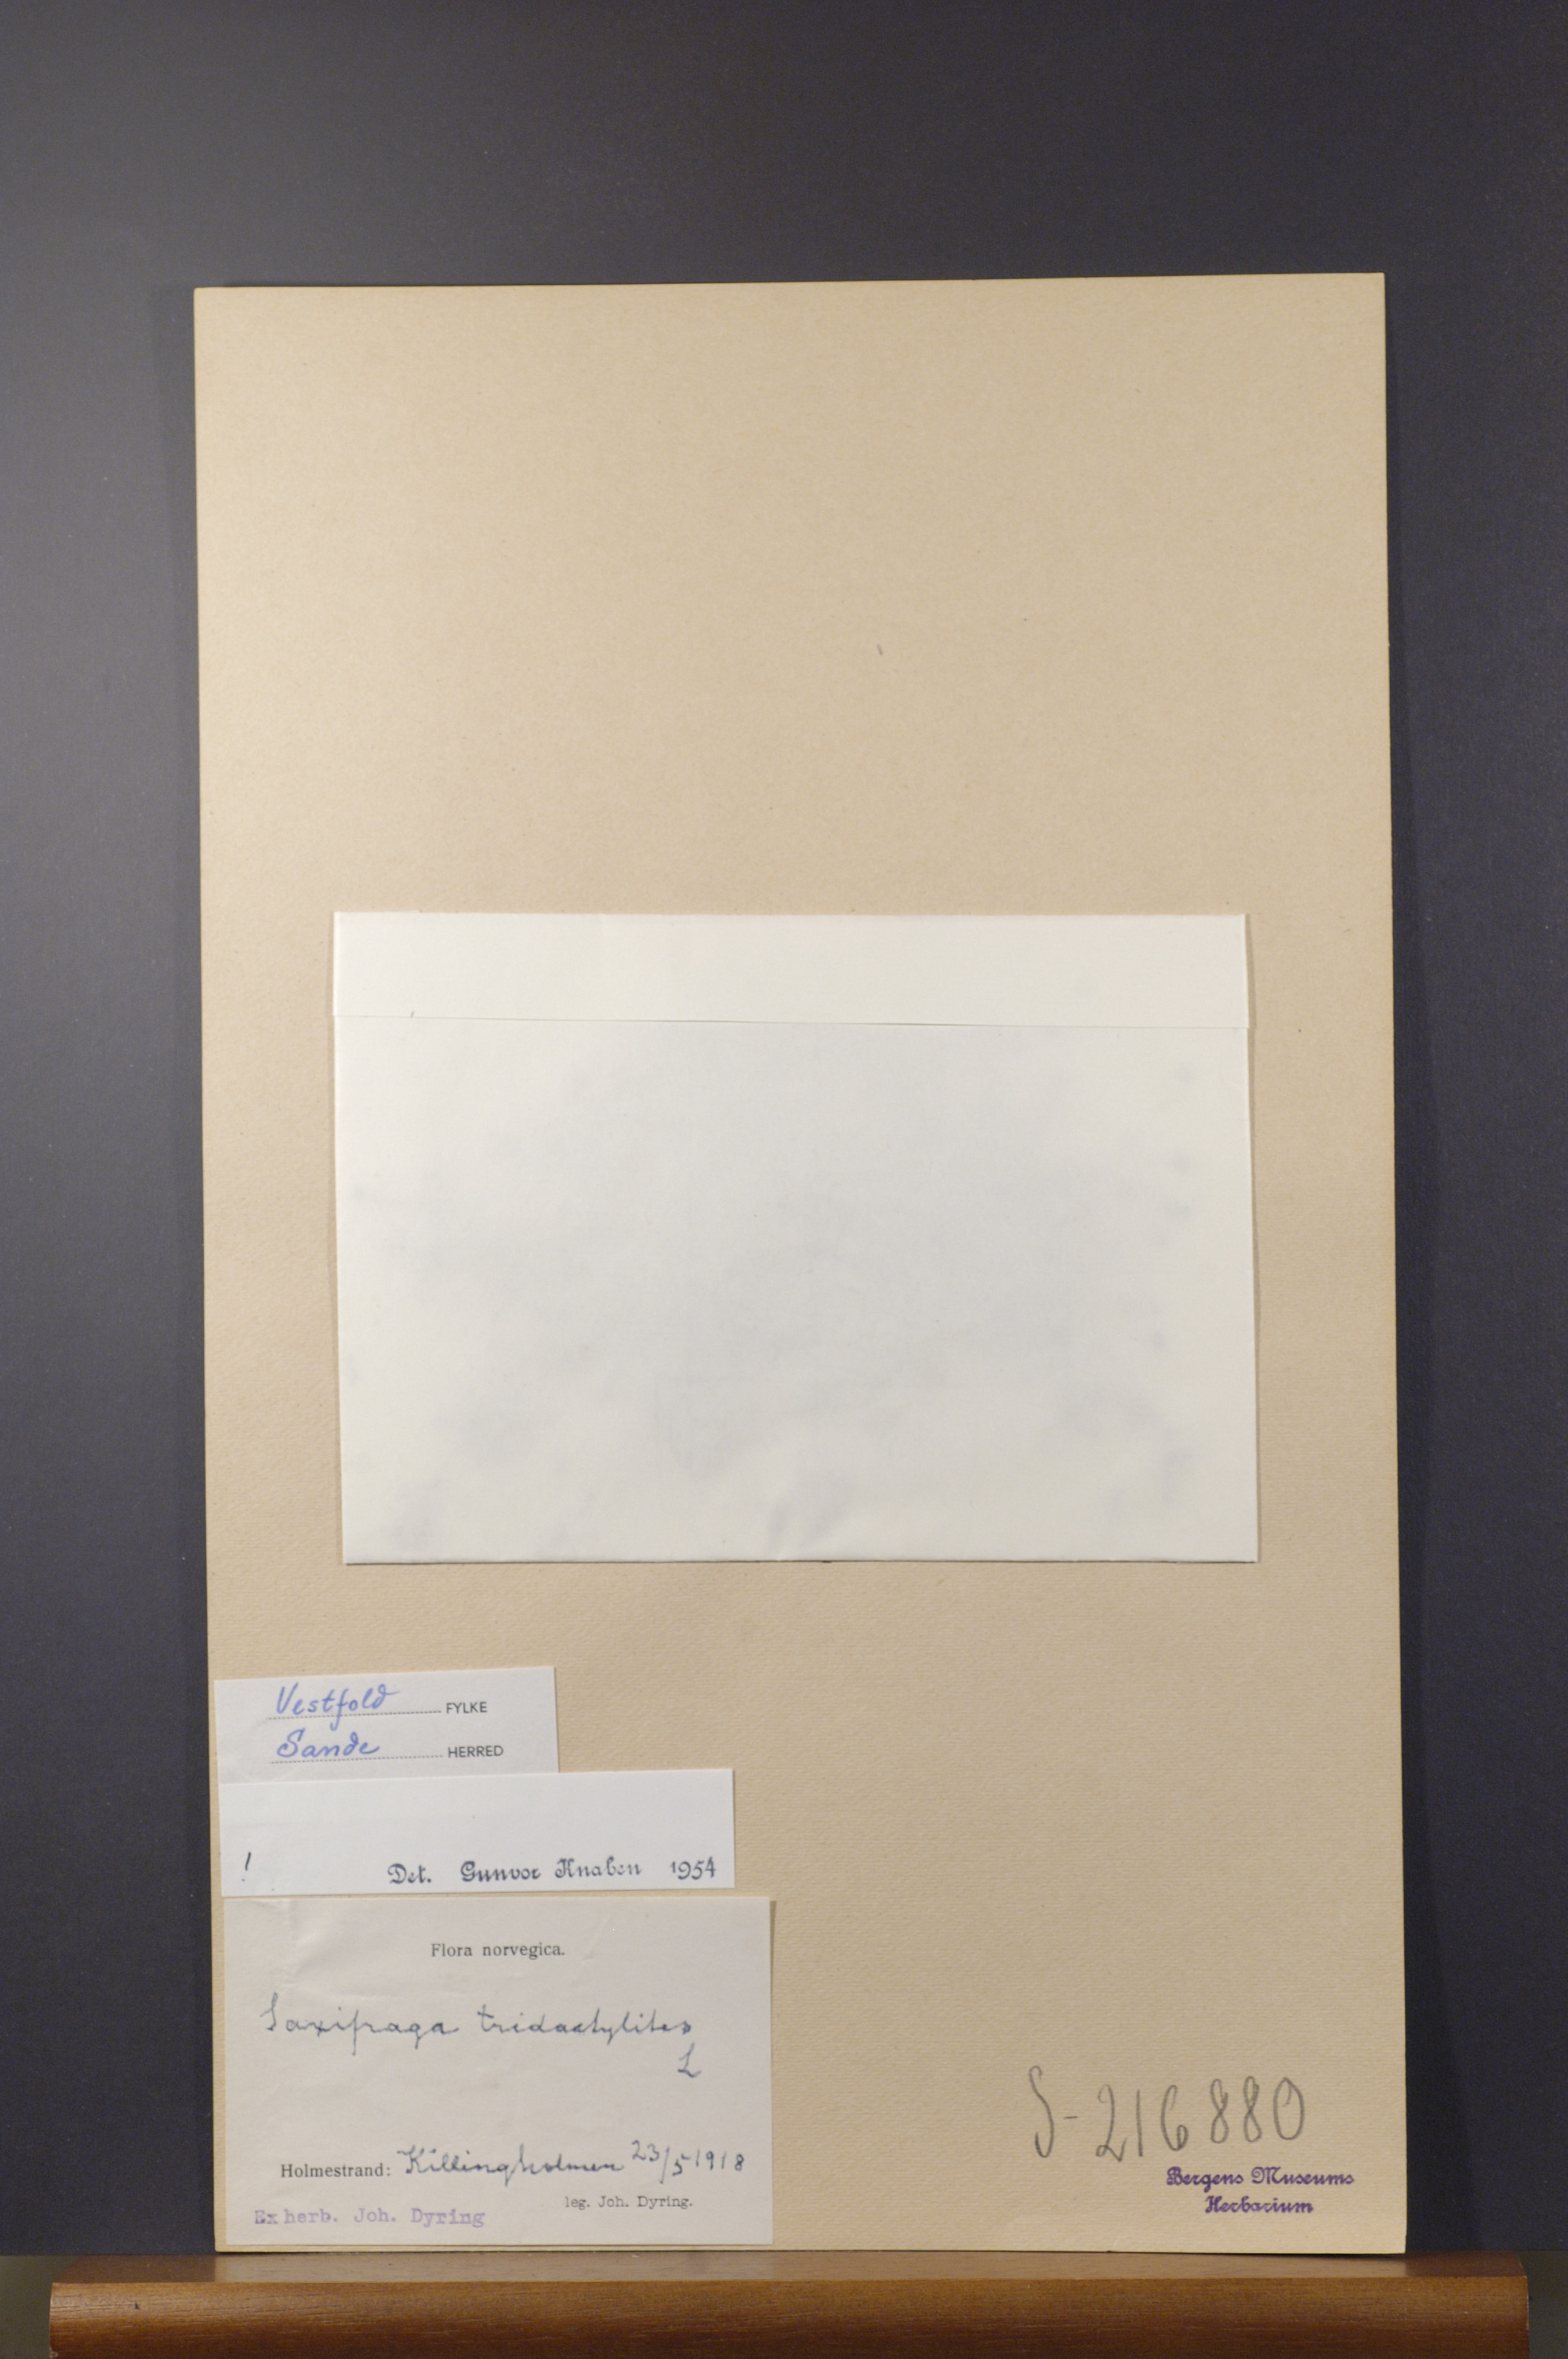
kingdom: Plantae
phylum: Tracheophyta
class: Magnoliopsida
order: Saxifragales
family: Saxifragaceae
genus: Saxifraga
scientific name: Saxifraga tridactylites
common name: Rue-leaved saxifrage
